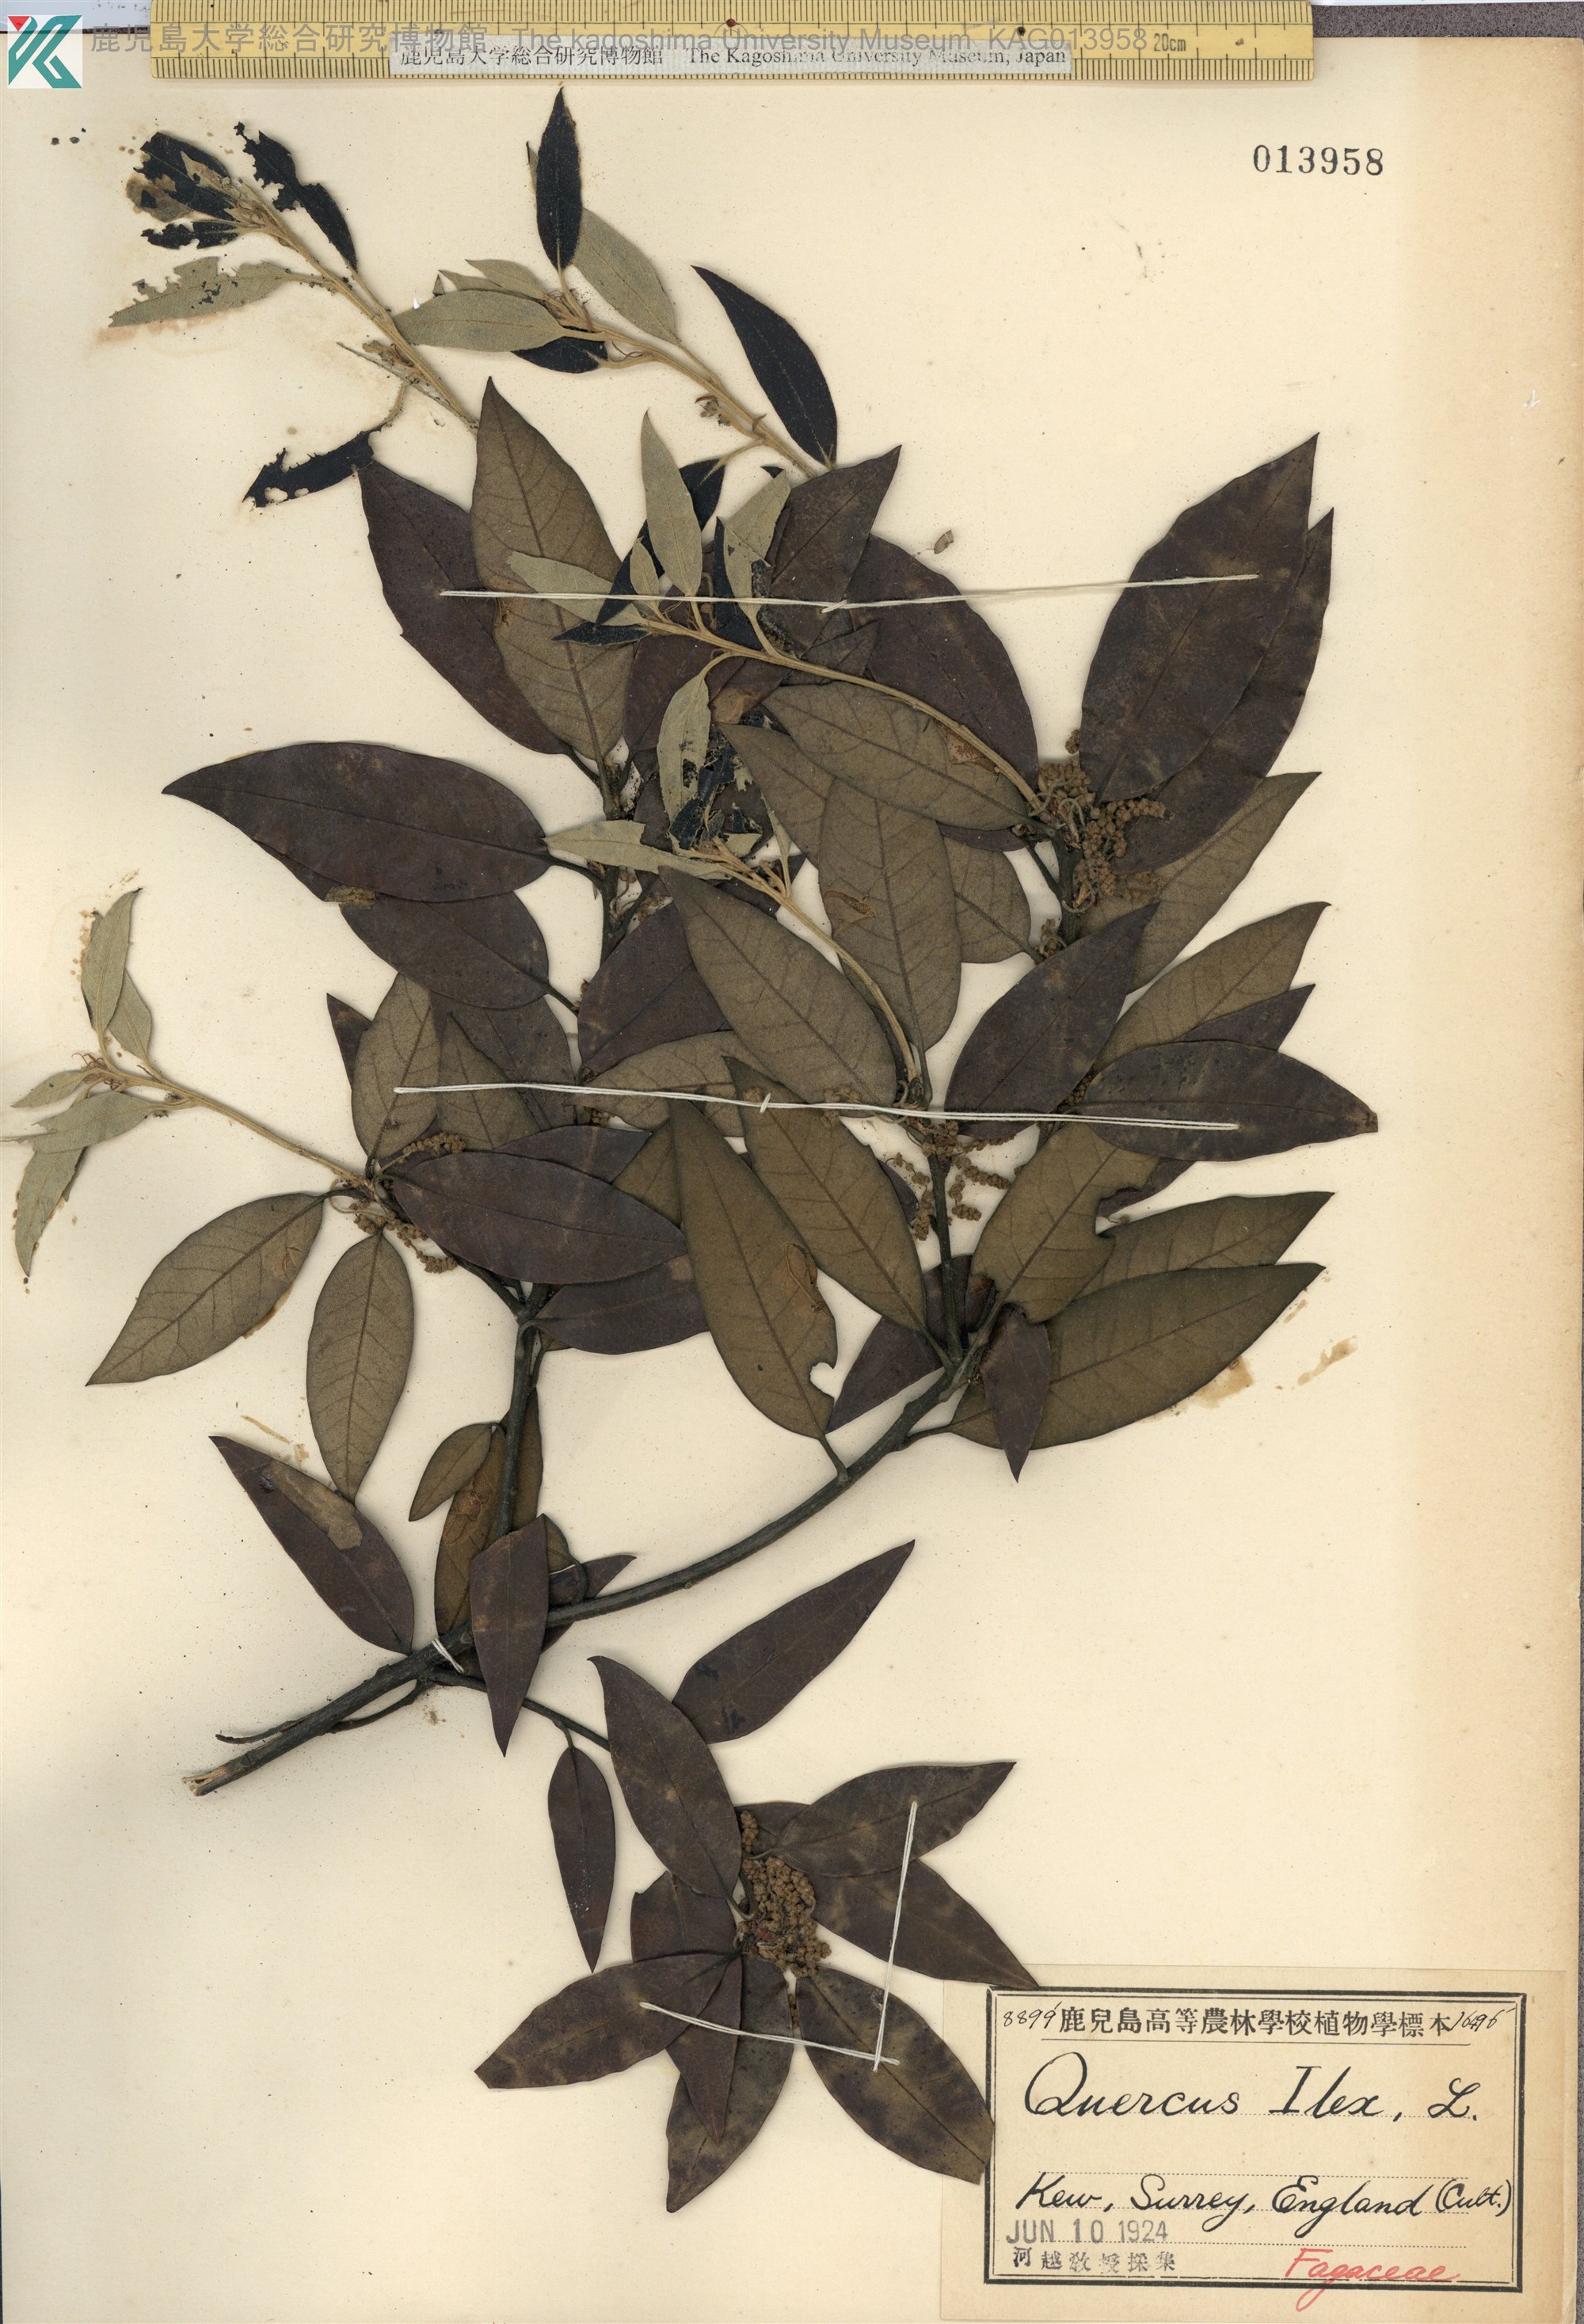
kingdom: Plantae
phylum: Tracheophyta
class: Magnoliopsida
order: Fagales
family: Fagaceae
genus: Quercus
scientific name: Quercus suber
